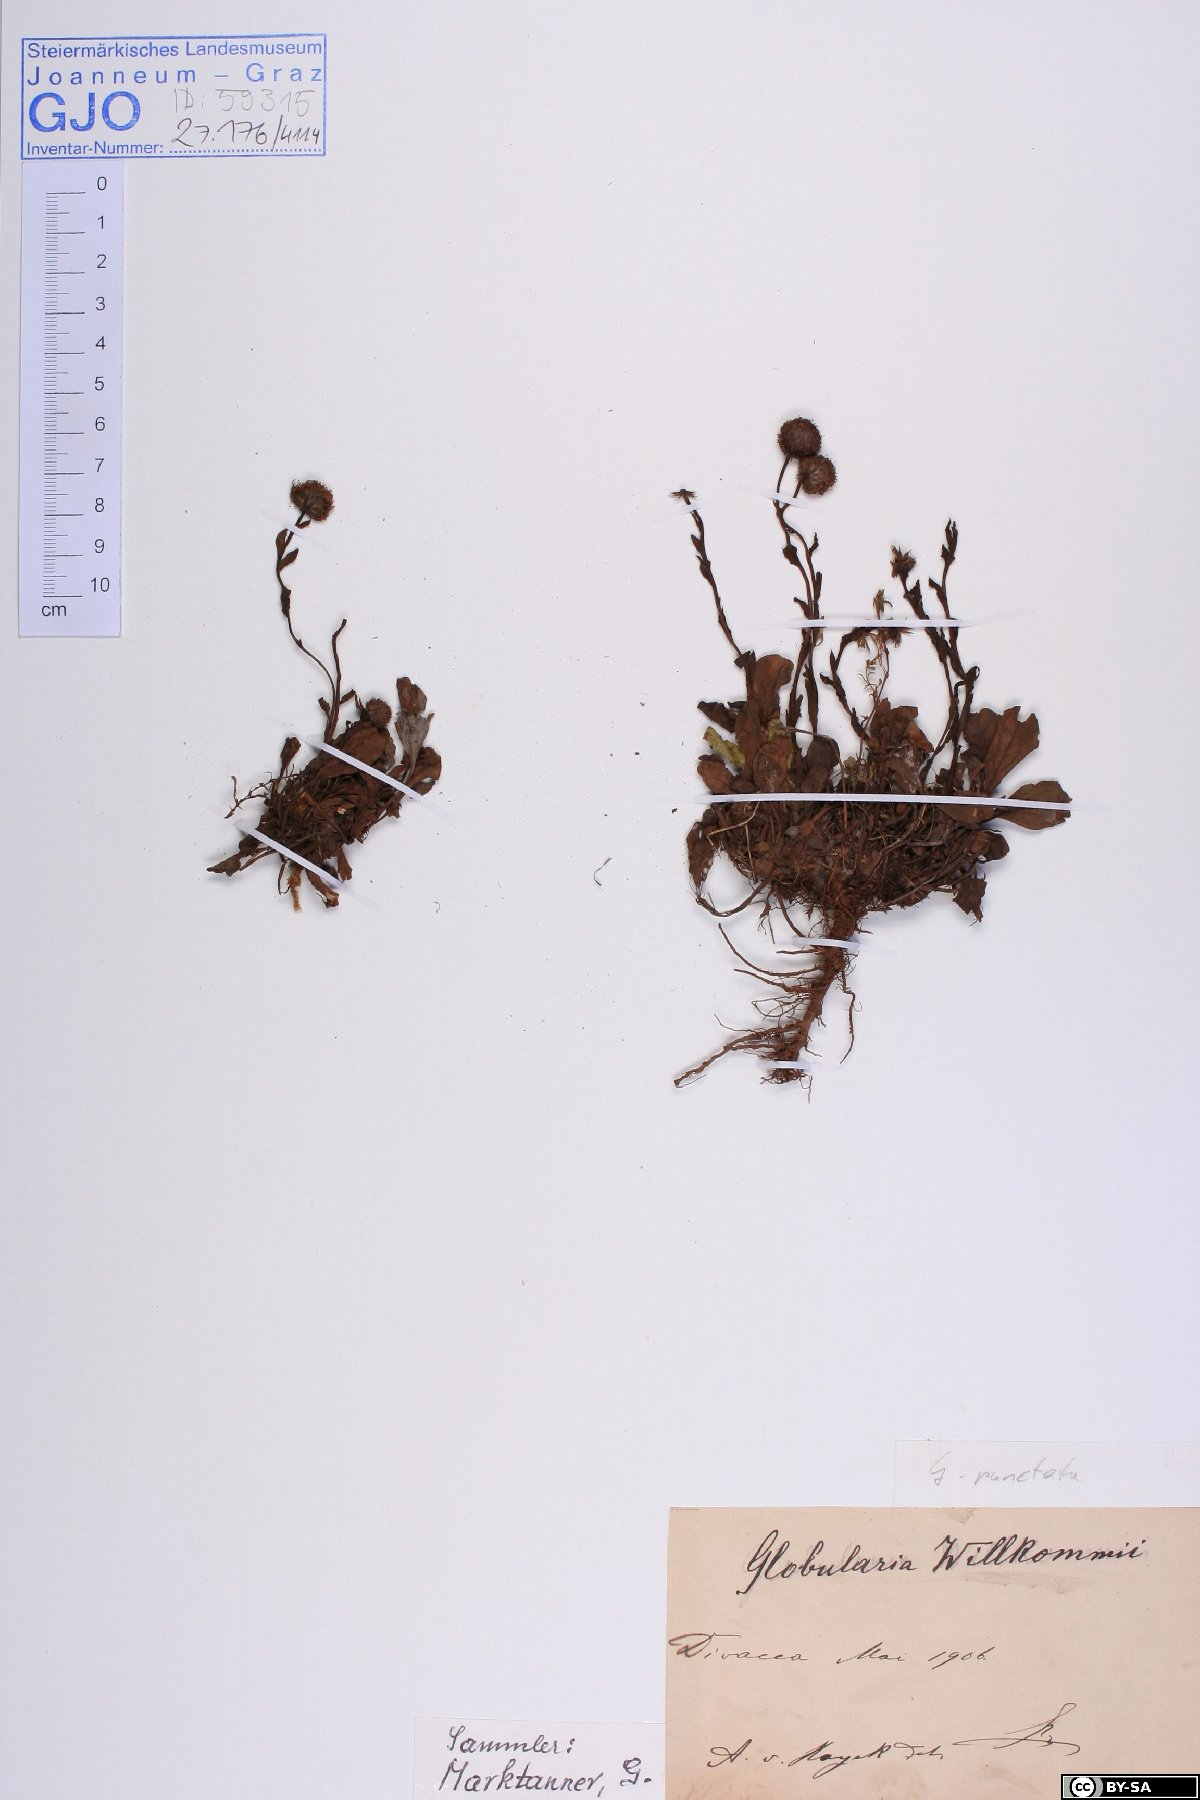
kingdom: Plantae
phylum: Tracheophyta
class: Magnoliopsida
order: Lamiales
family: Plantaginaceae
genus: Globularia
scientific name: Globularia bisnagarica
